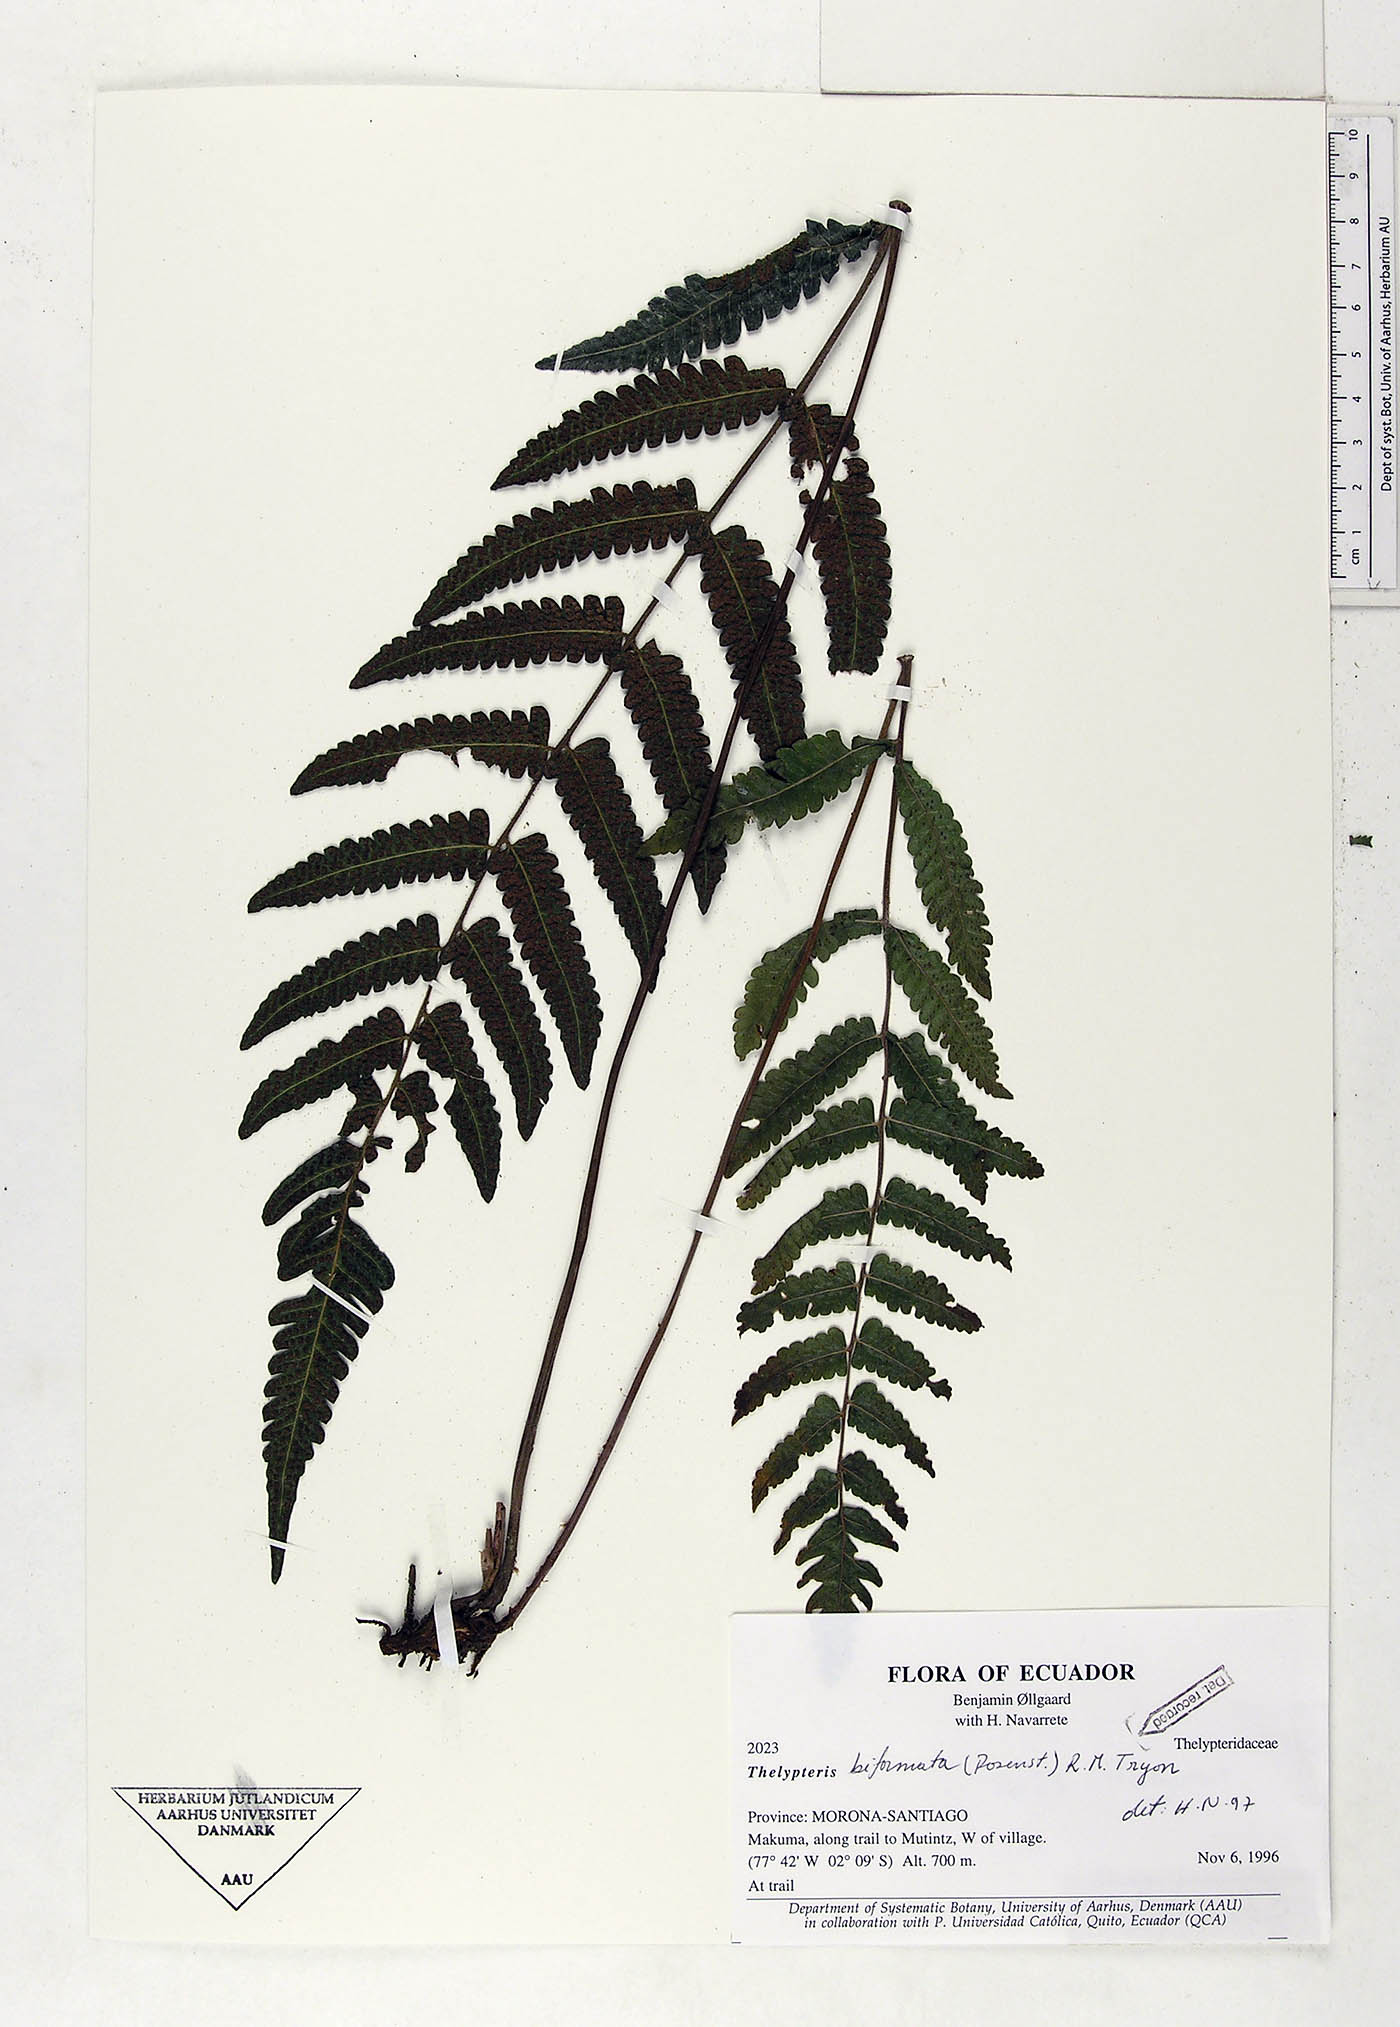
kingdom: Plantae
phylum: Tracheophyta
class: Polypodiopsida
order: Polypodiales
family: Thelypteridaceae
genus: Goniopteris
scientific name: Goniopteris biformata
